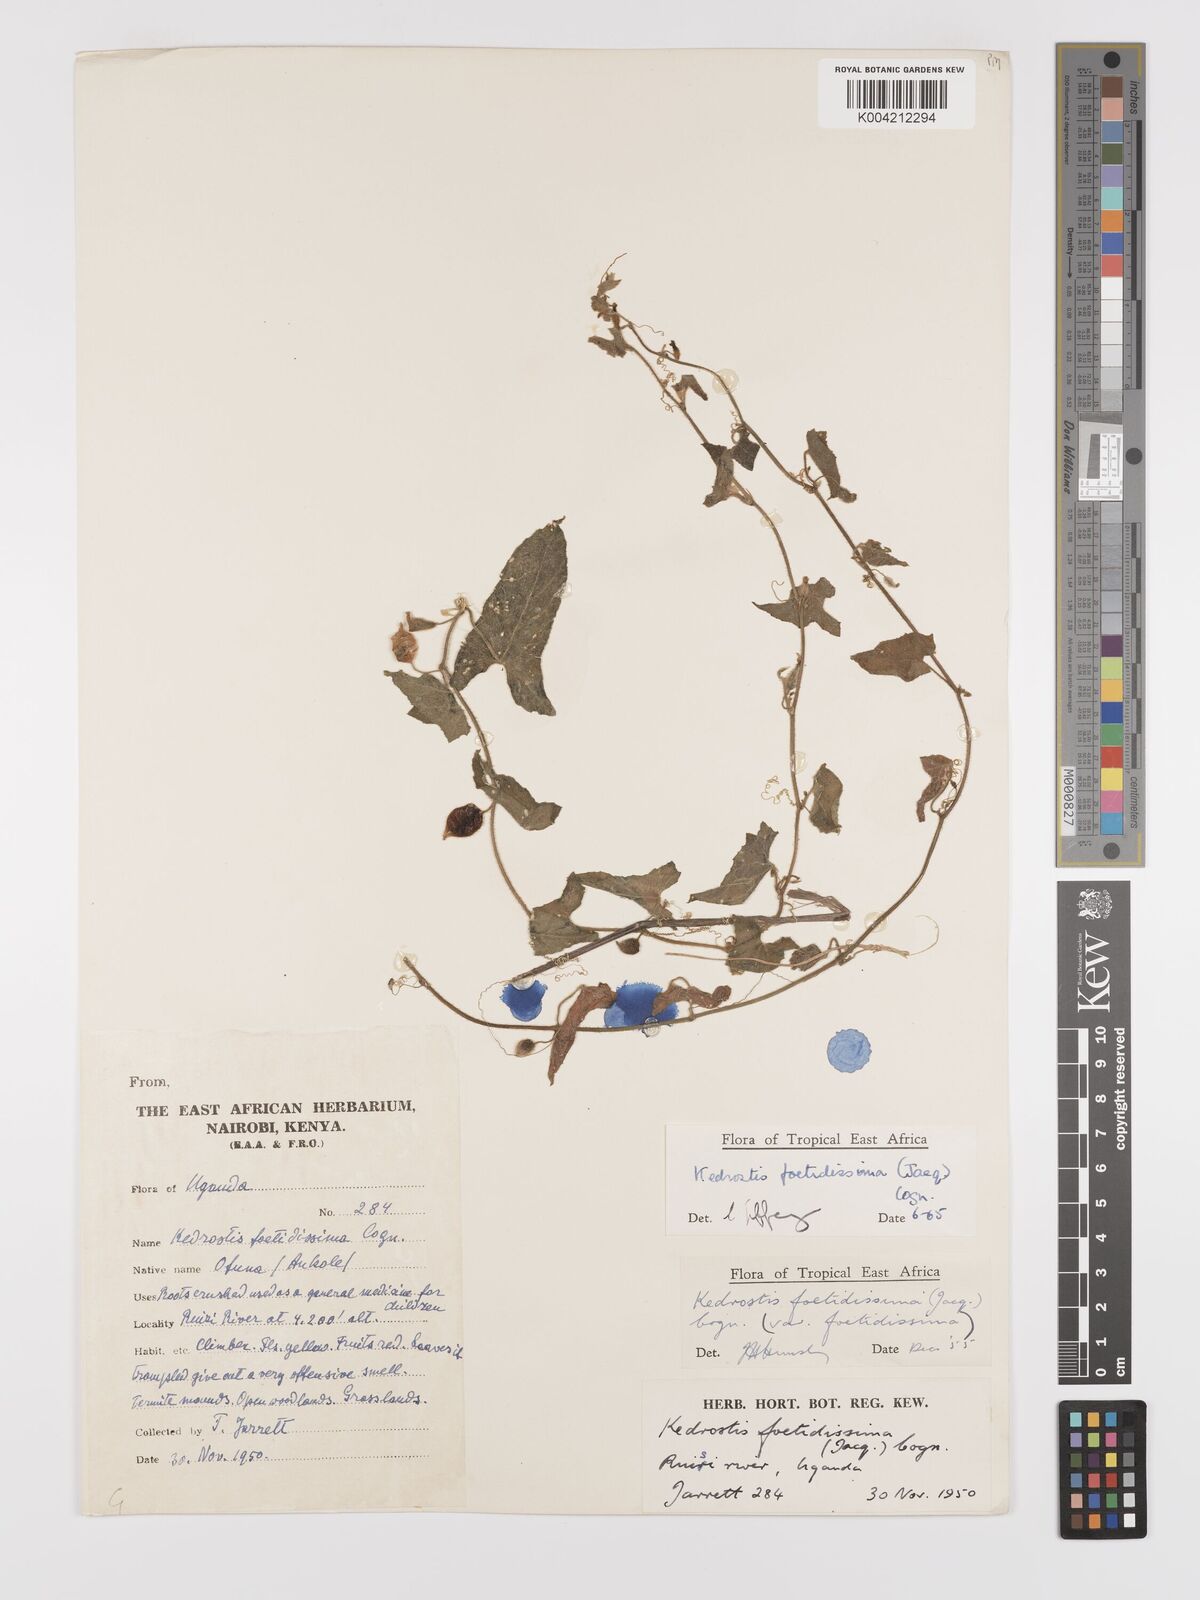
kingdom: Plantae
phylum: Tracheophyta
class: Magnoliopsida
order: Cucurbitales
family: Cucurbitaceae
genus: Kedrostis
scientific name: Kedrostis foetidissima
